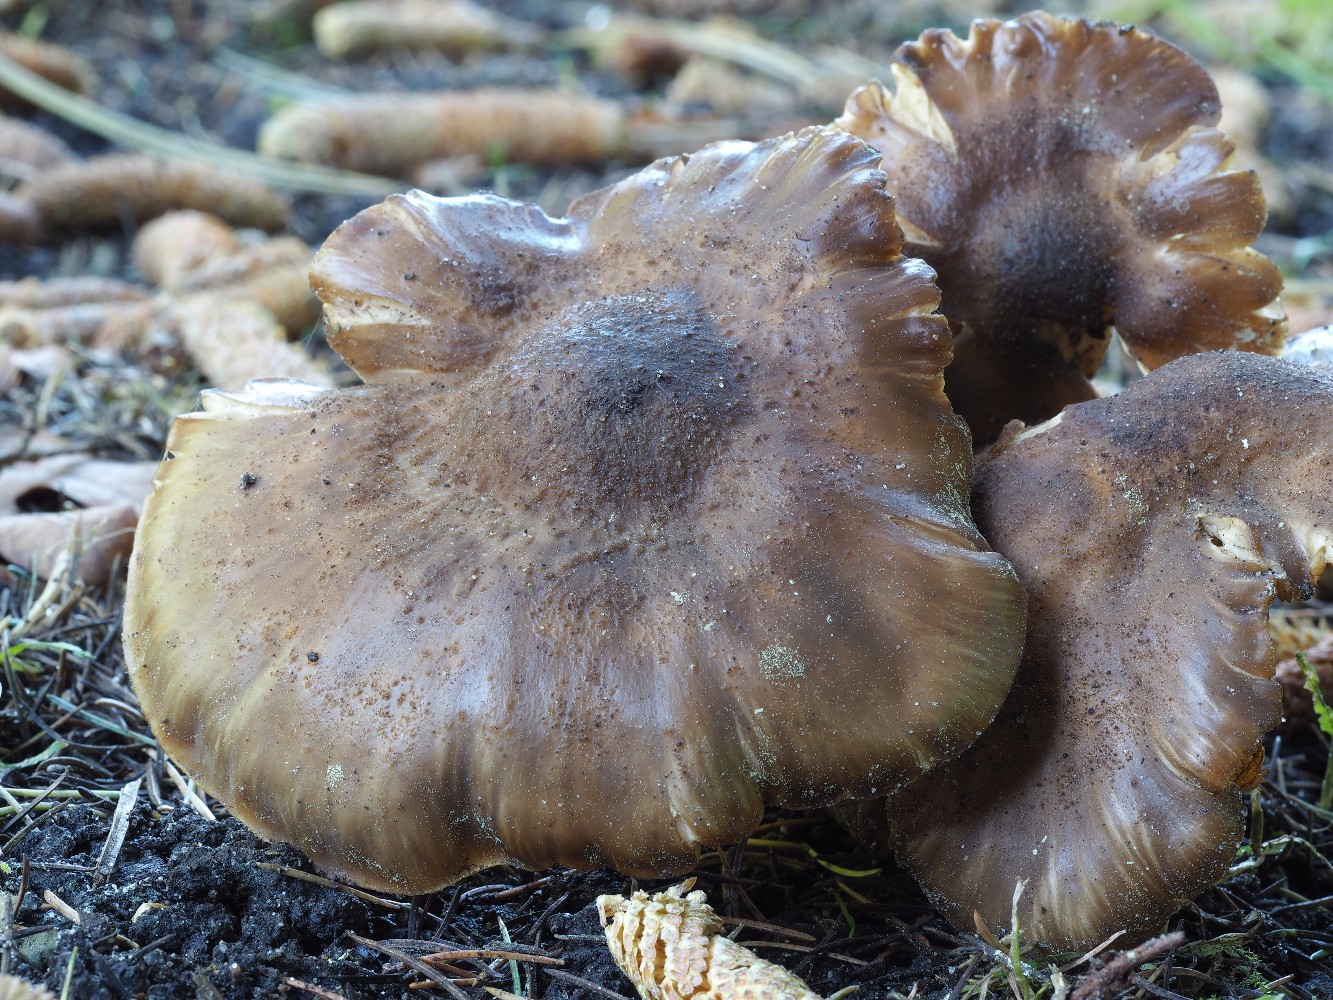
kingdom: Fungi
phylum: Basidiomycota
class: Agaricomycetes
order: Agaricales
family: Lyophyllaceae
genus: Lyophyllum
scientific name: Lyophyllum decastes
